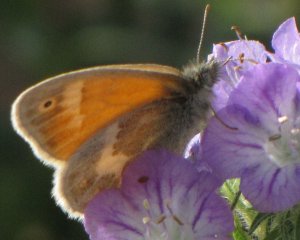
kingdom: Animalia
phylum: Arthropoda
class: Insecta
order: Lepidoptera
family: Nymphalidae
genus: Coenonympha
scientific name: Coenonympha tullia
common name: Large Heath
